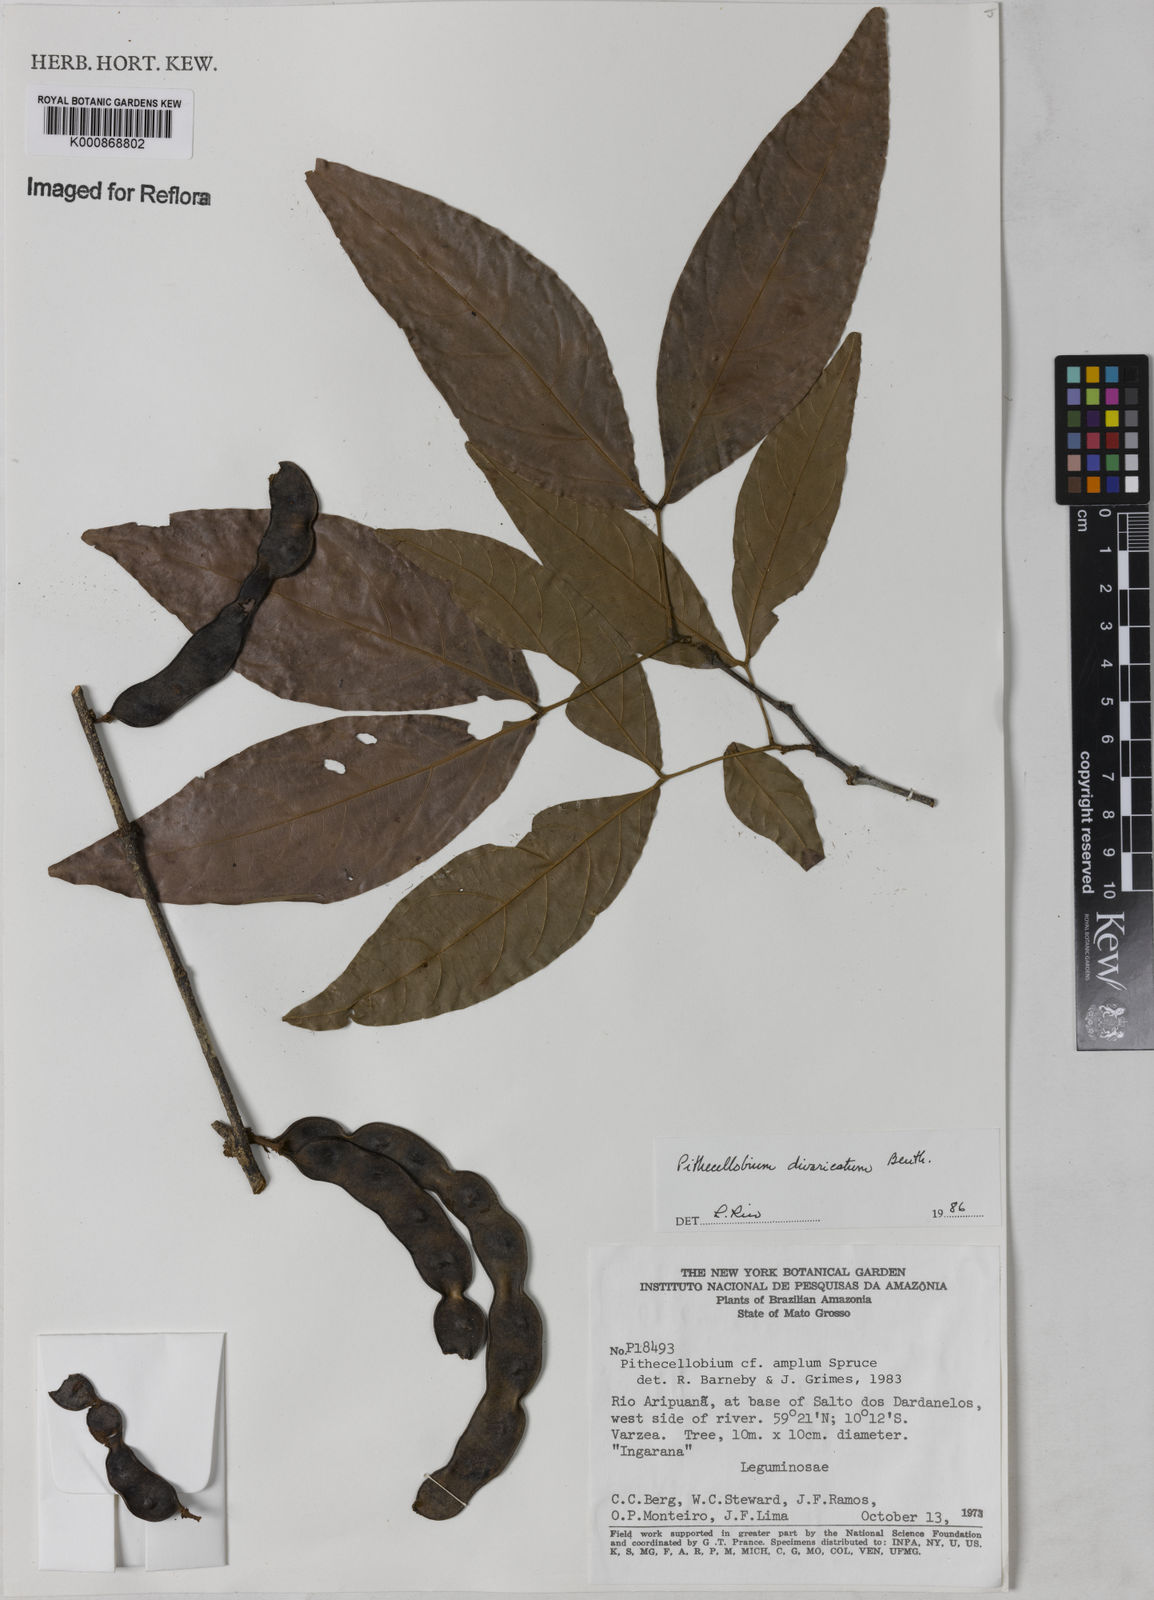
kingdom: Plantae
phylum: Tracheophyta
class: Magnoliopsida
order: Fabales
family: Fabaceae
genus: Zygia
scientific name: Zygia cataractae
